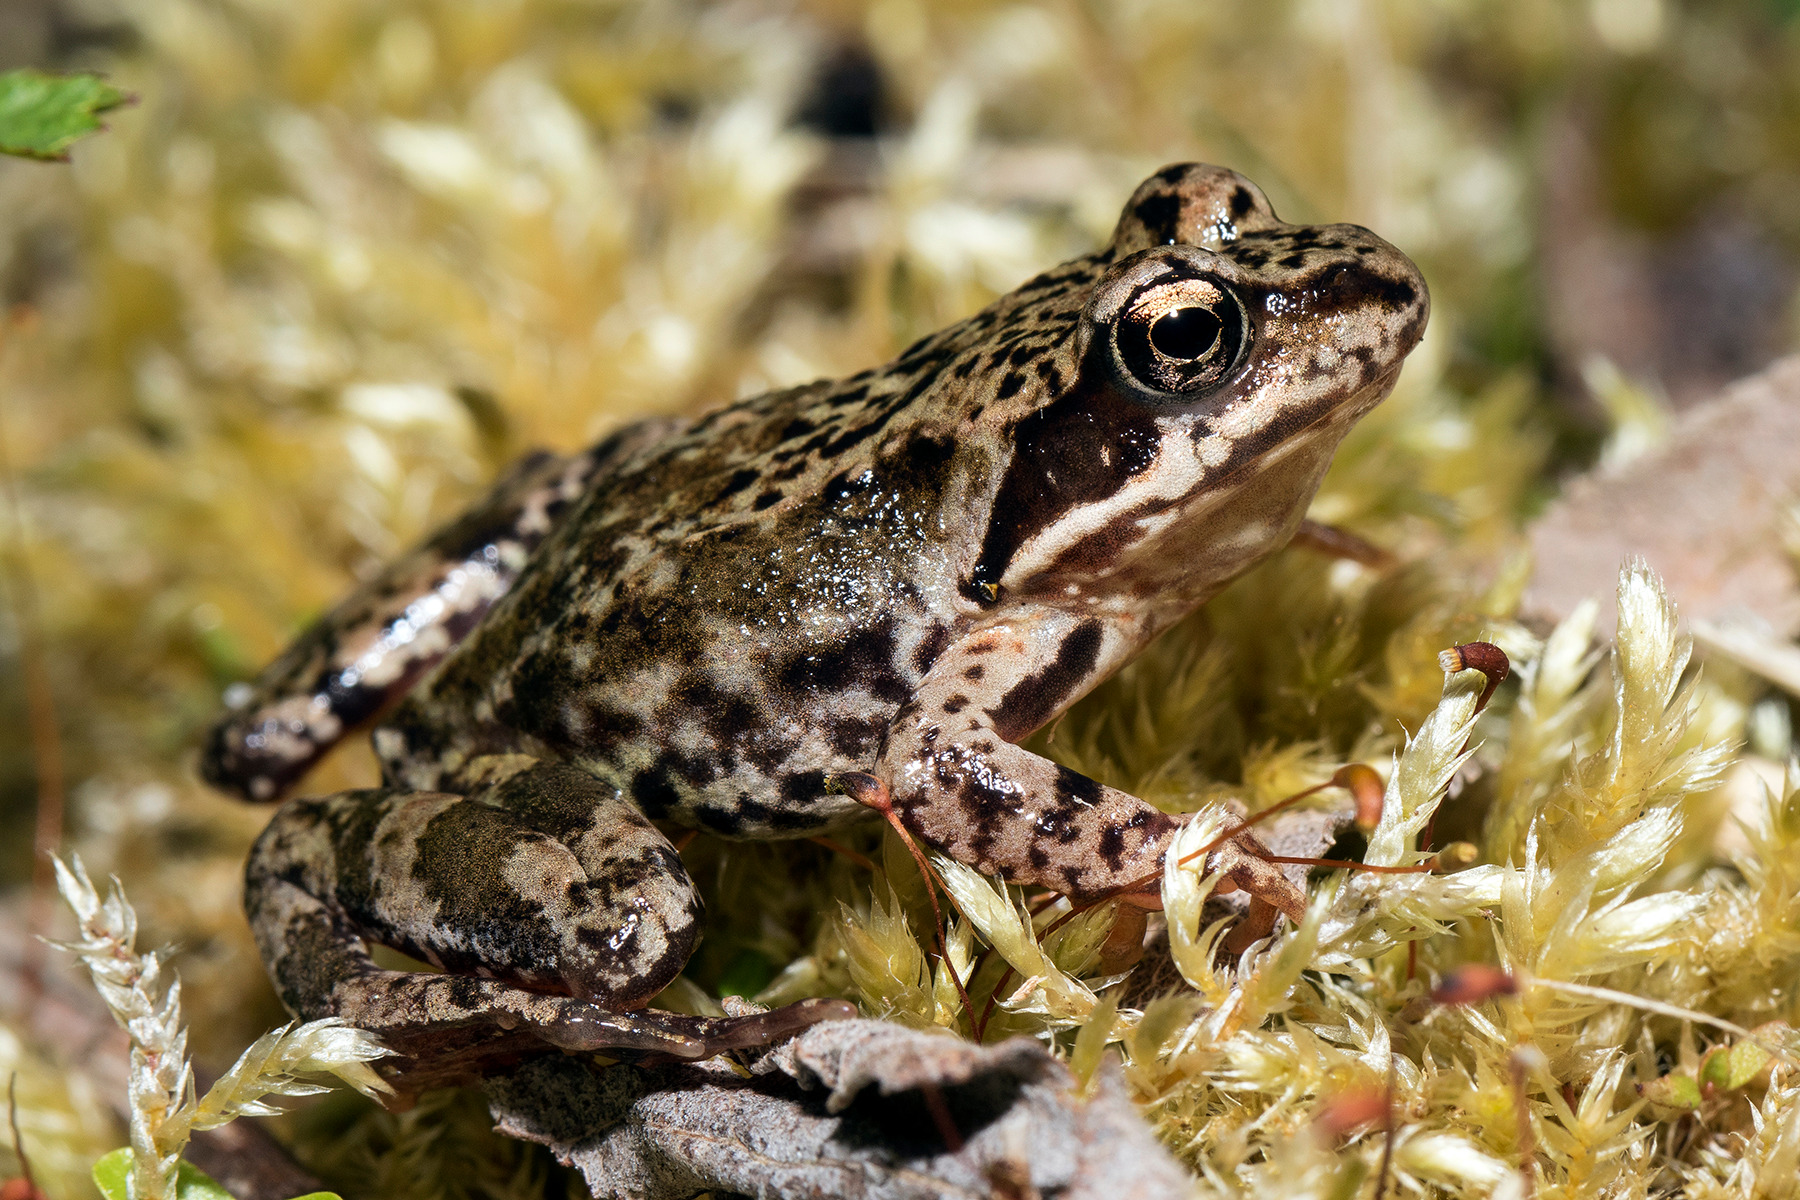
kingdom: Animalia
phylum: Chordata
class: Amphibia
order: Anura
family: Ranidae
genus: Rana
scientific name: Rana temporaria
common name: Butsnudet frø
